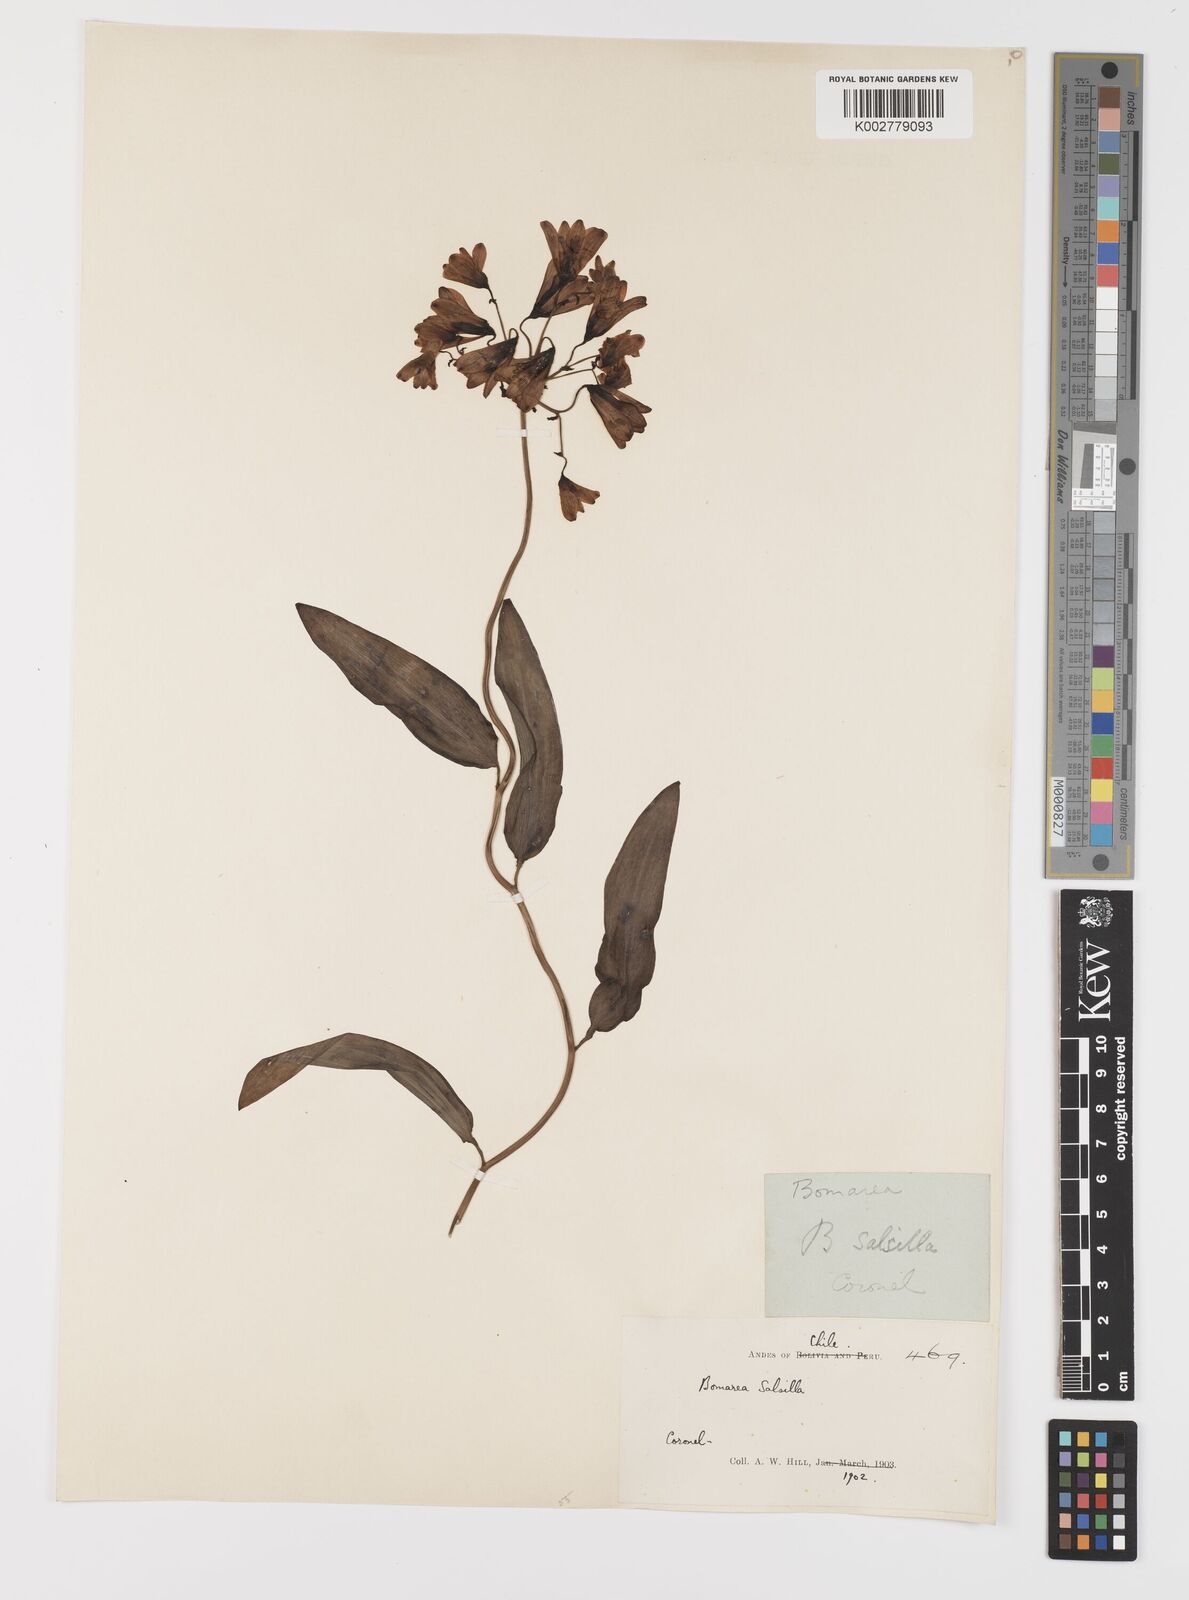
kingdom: Plantae
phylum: Tracheophyta
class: Liliopsida
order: Liliales
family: Alstroemeriaceae
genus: Bomarea
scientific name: Bomarea edulis
